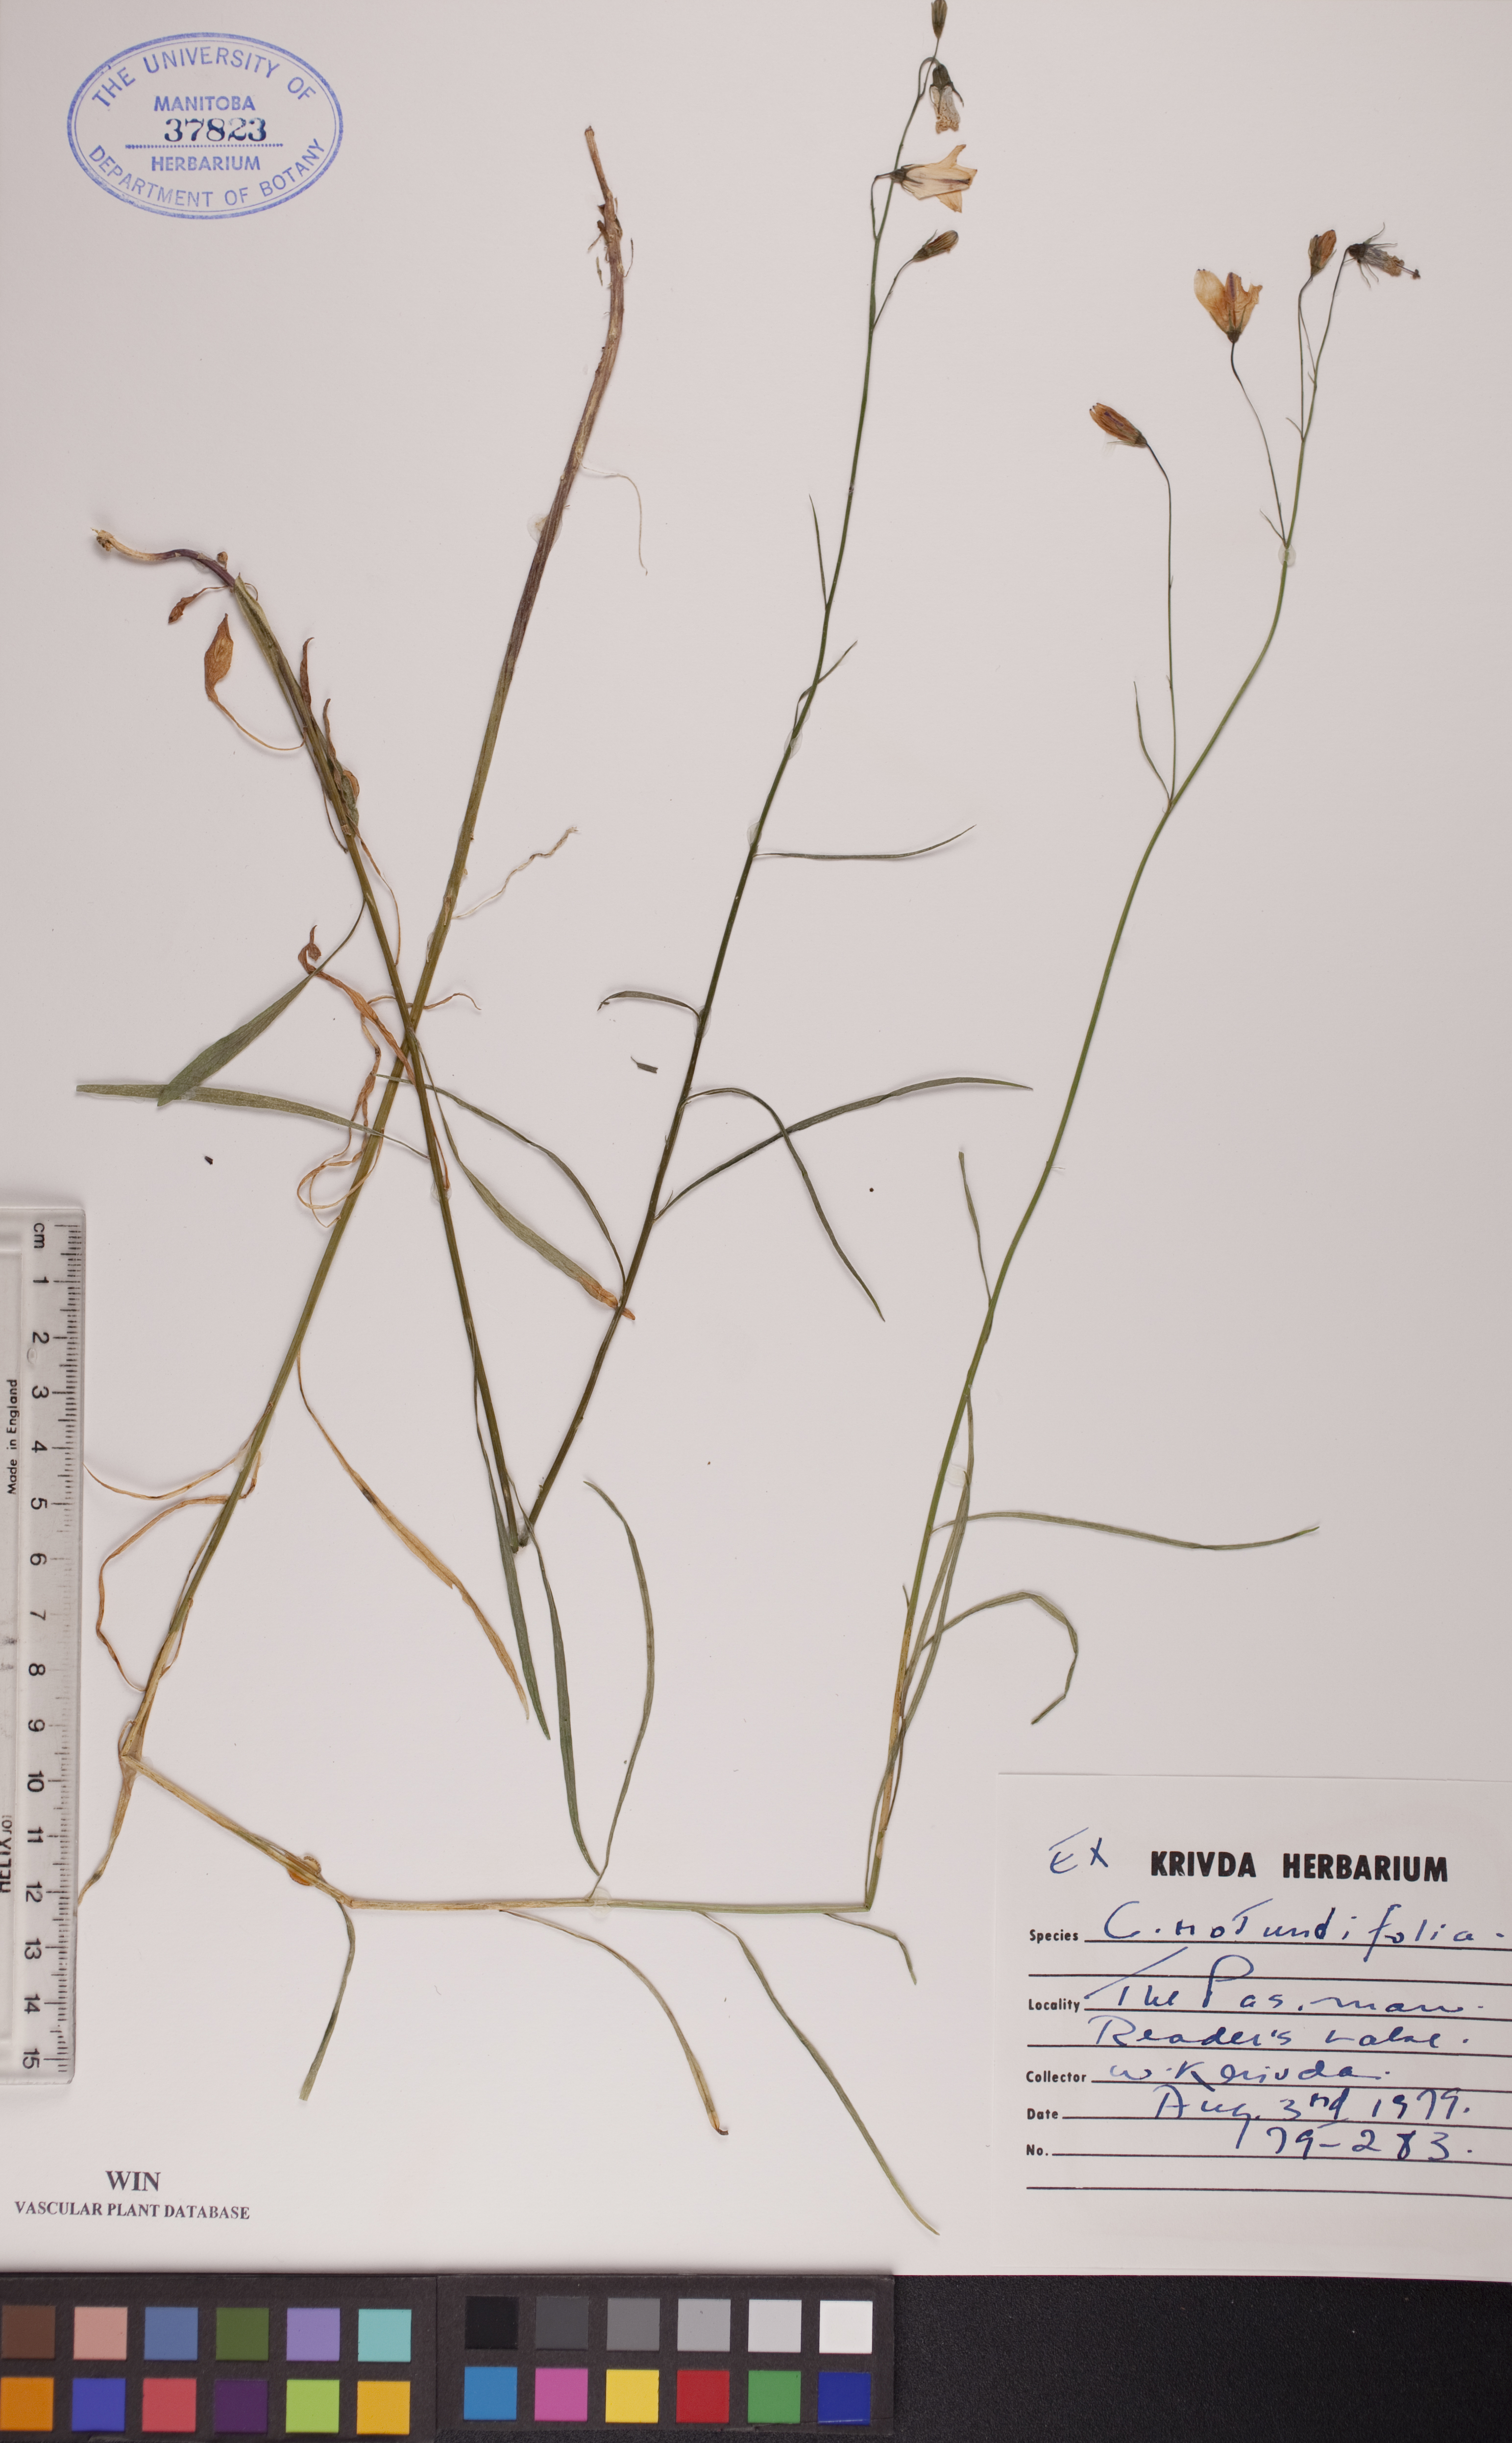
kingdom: Plantae
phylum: Tracheophyta
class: Magnoliopsida
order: Asterales
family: Campanulaceae
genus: Campanula
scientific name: Campanula rotundifolia
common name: Harebell
